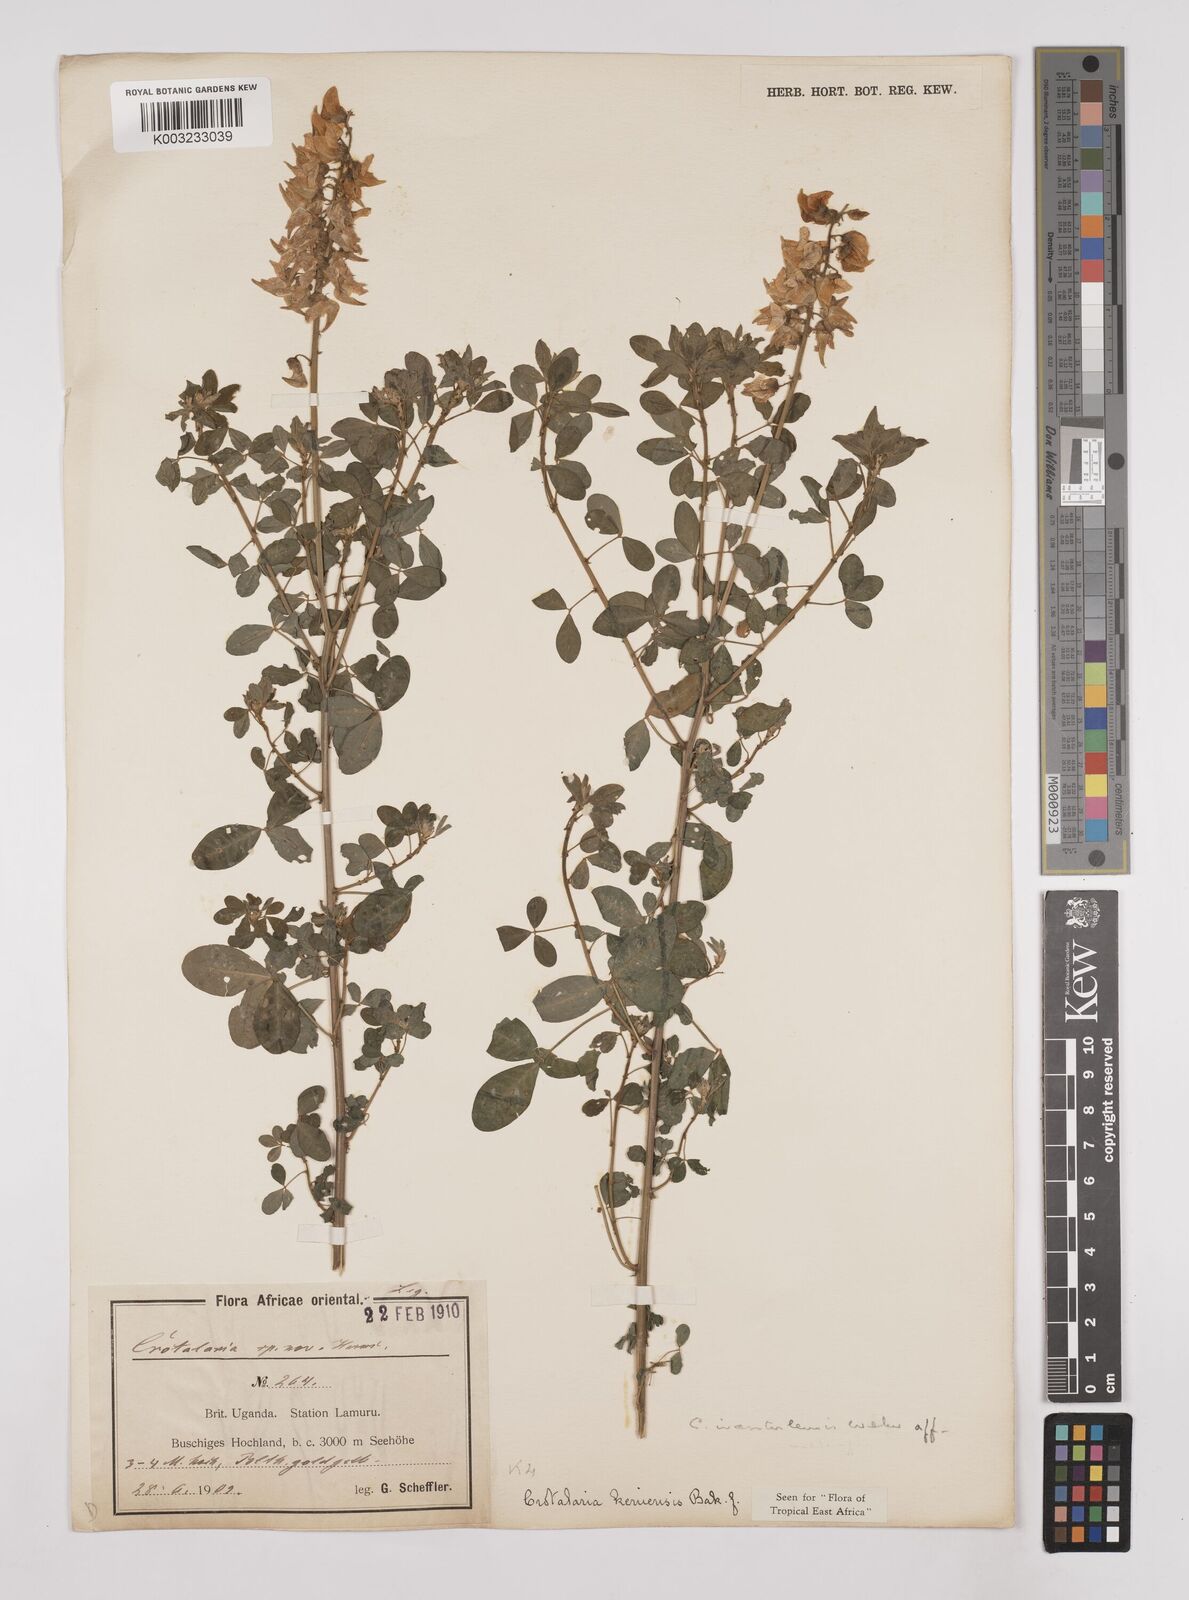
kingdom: Plantae
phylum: Tracheophyta
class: Magnoliopsida
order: Fabales
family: Fabaceae
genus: Crotalaria
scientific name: Crotalaria keniensis
